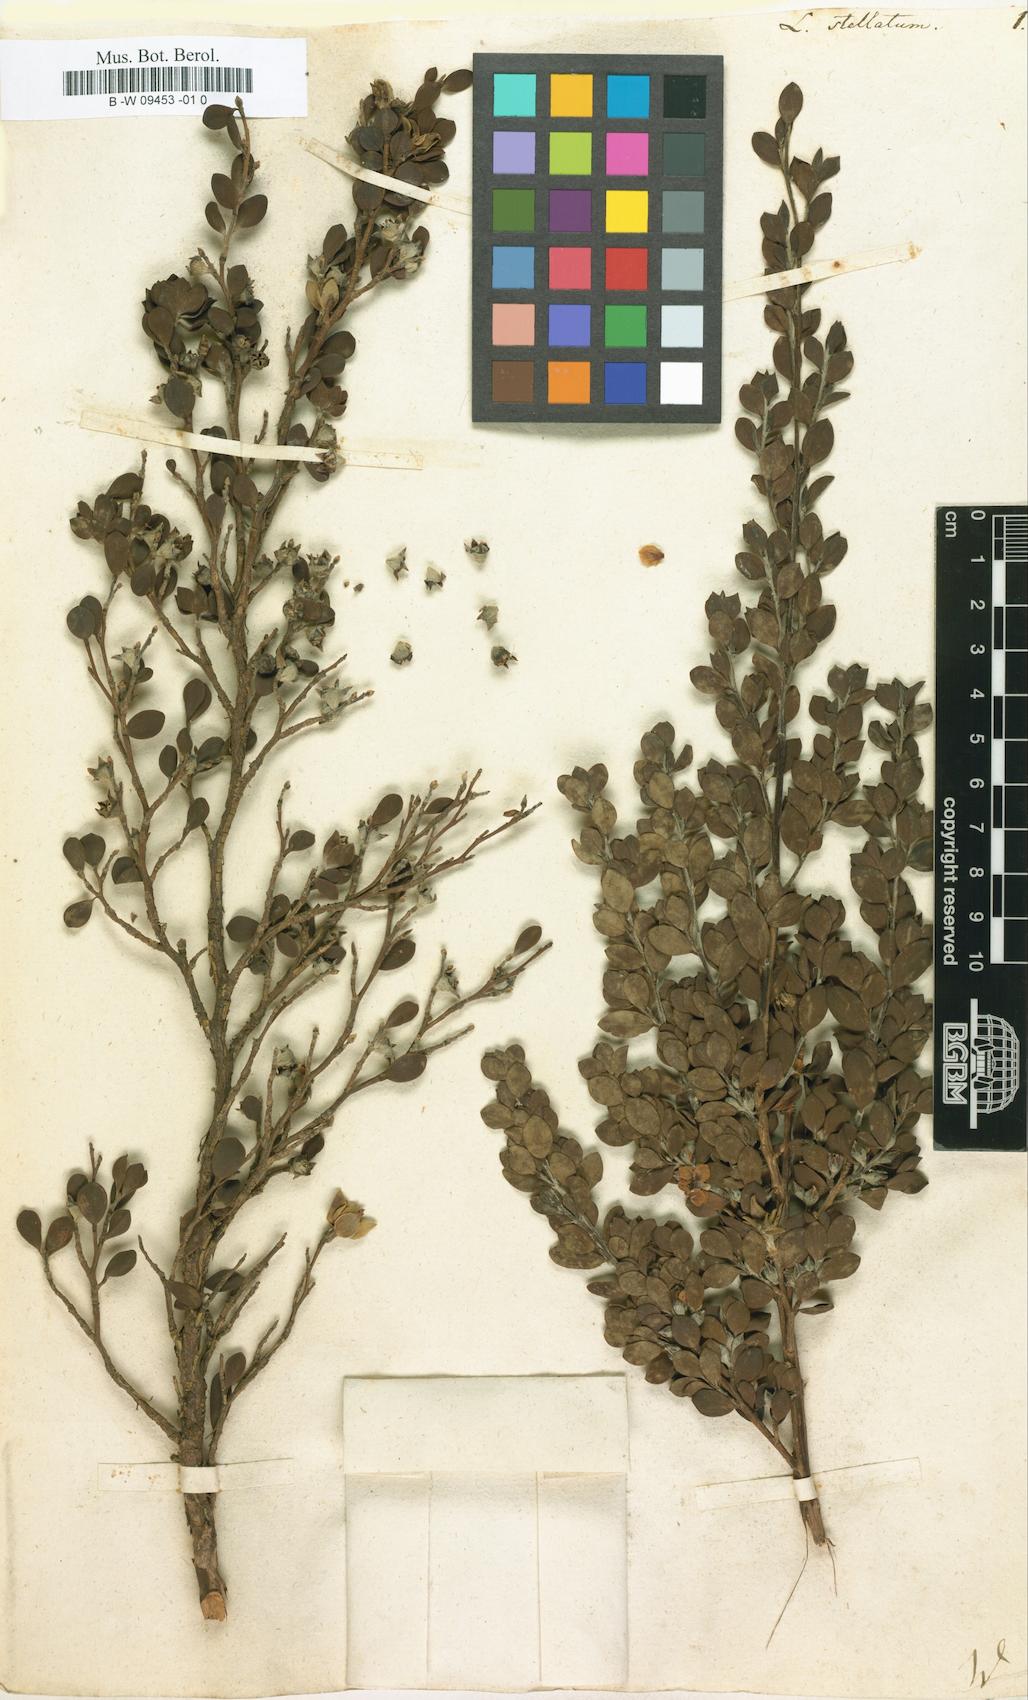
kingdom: Plantae
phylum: Tracheophyta
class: Magnoliopsida
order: Myrtales
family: Myrtaceae
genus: Leptospermum
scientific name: Leptospermum trinervium
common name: Flaky-barked tea-tree
